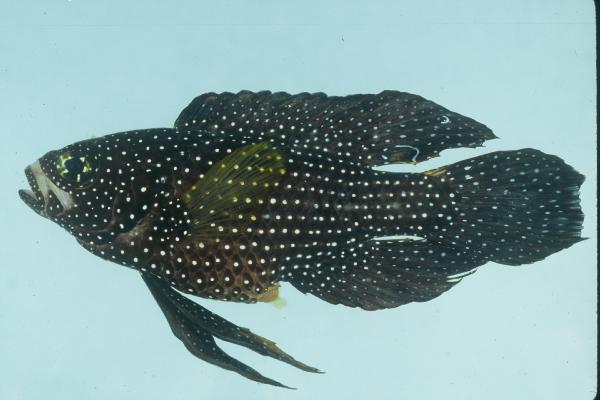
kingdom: Animalia
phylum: Chordata
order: Perciformes
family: Plesiopidae
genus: Calloplesiops
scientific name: Calloplesiops altivelis
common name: Comet
